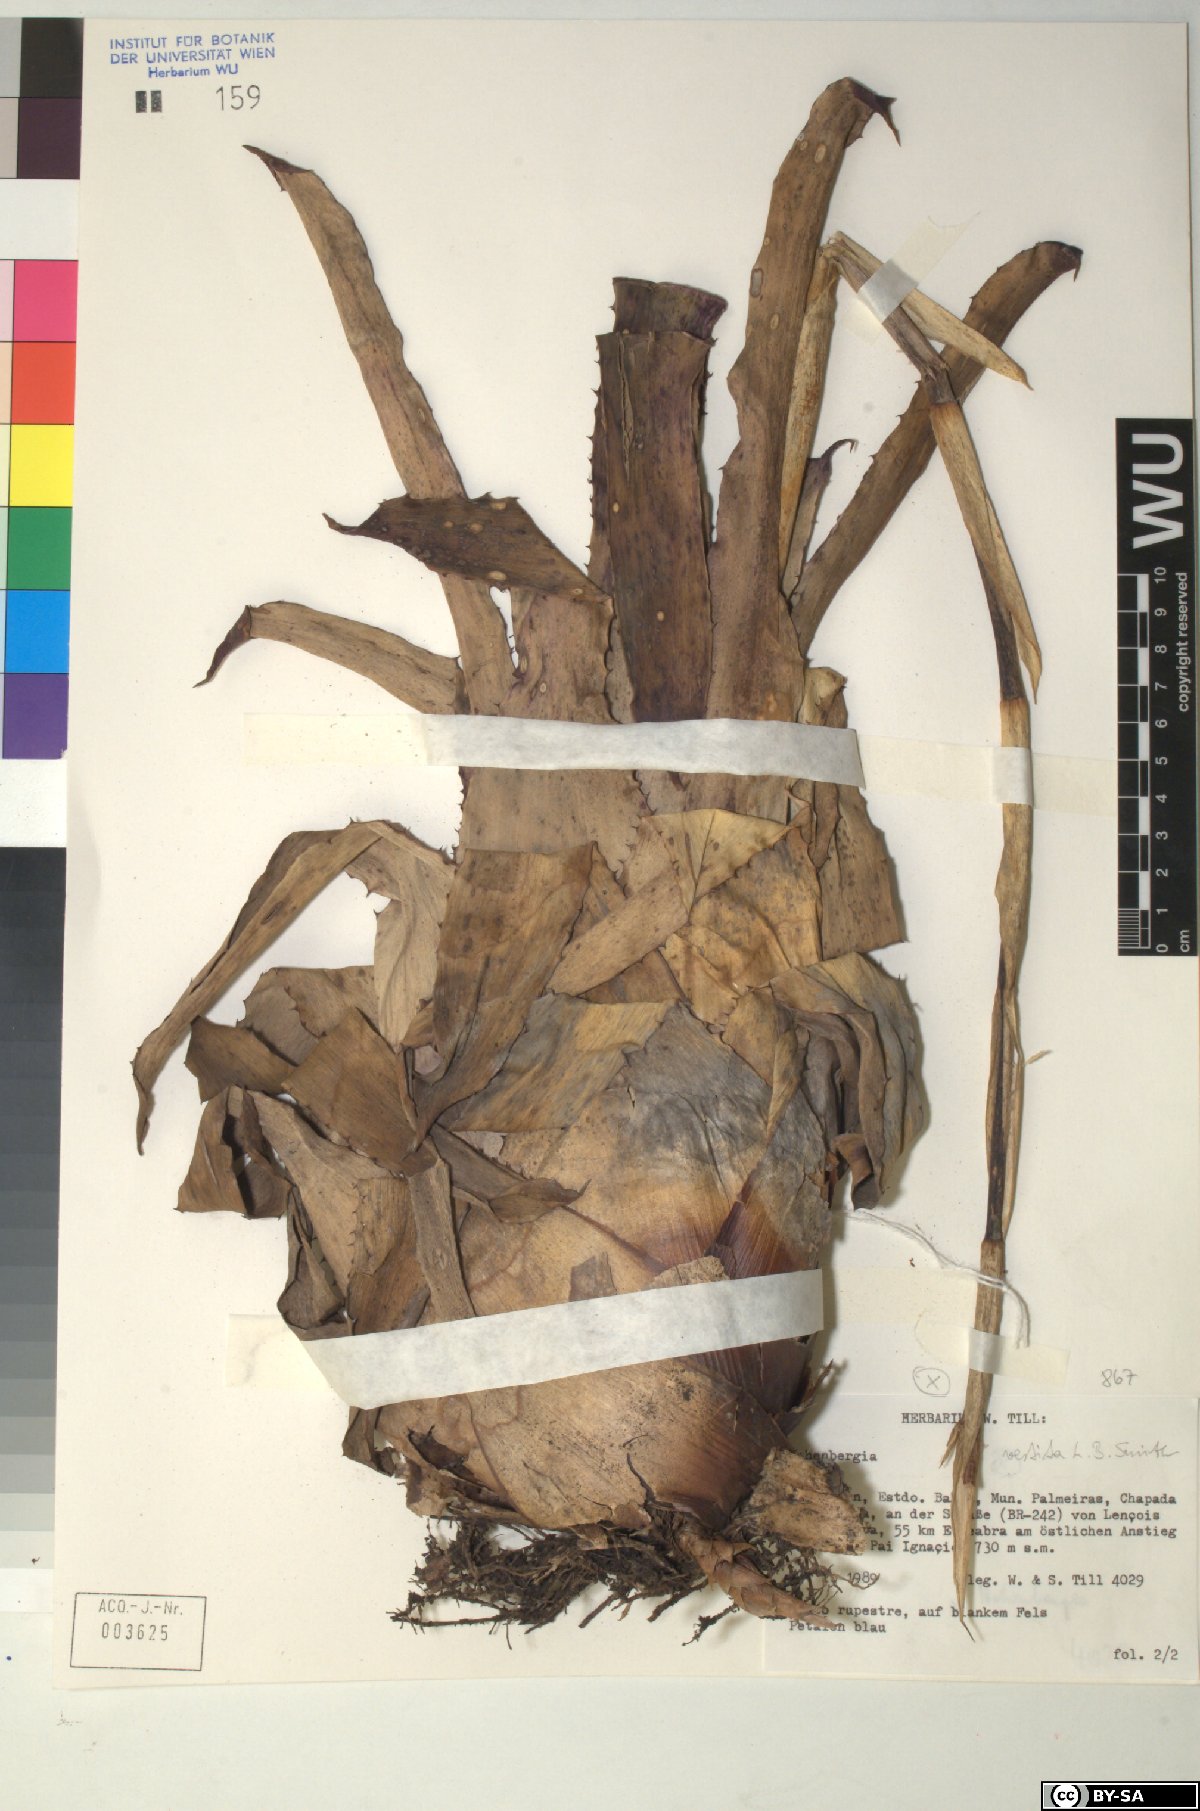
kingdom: Plantae
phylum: Tracheophyta
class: Liliopsida
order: Poales
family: Bromeliaceae
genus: Hohenbergia
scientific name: Hohenbergia
